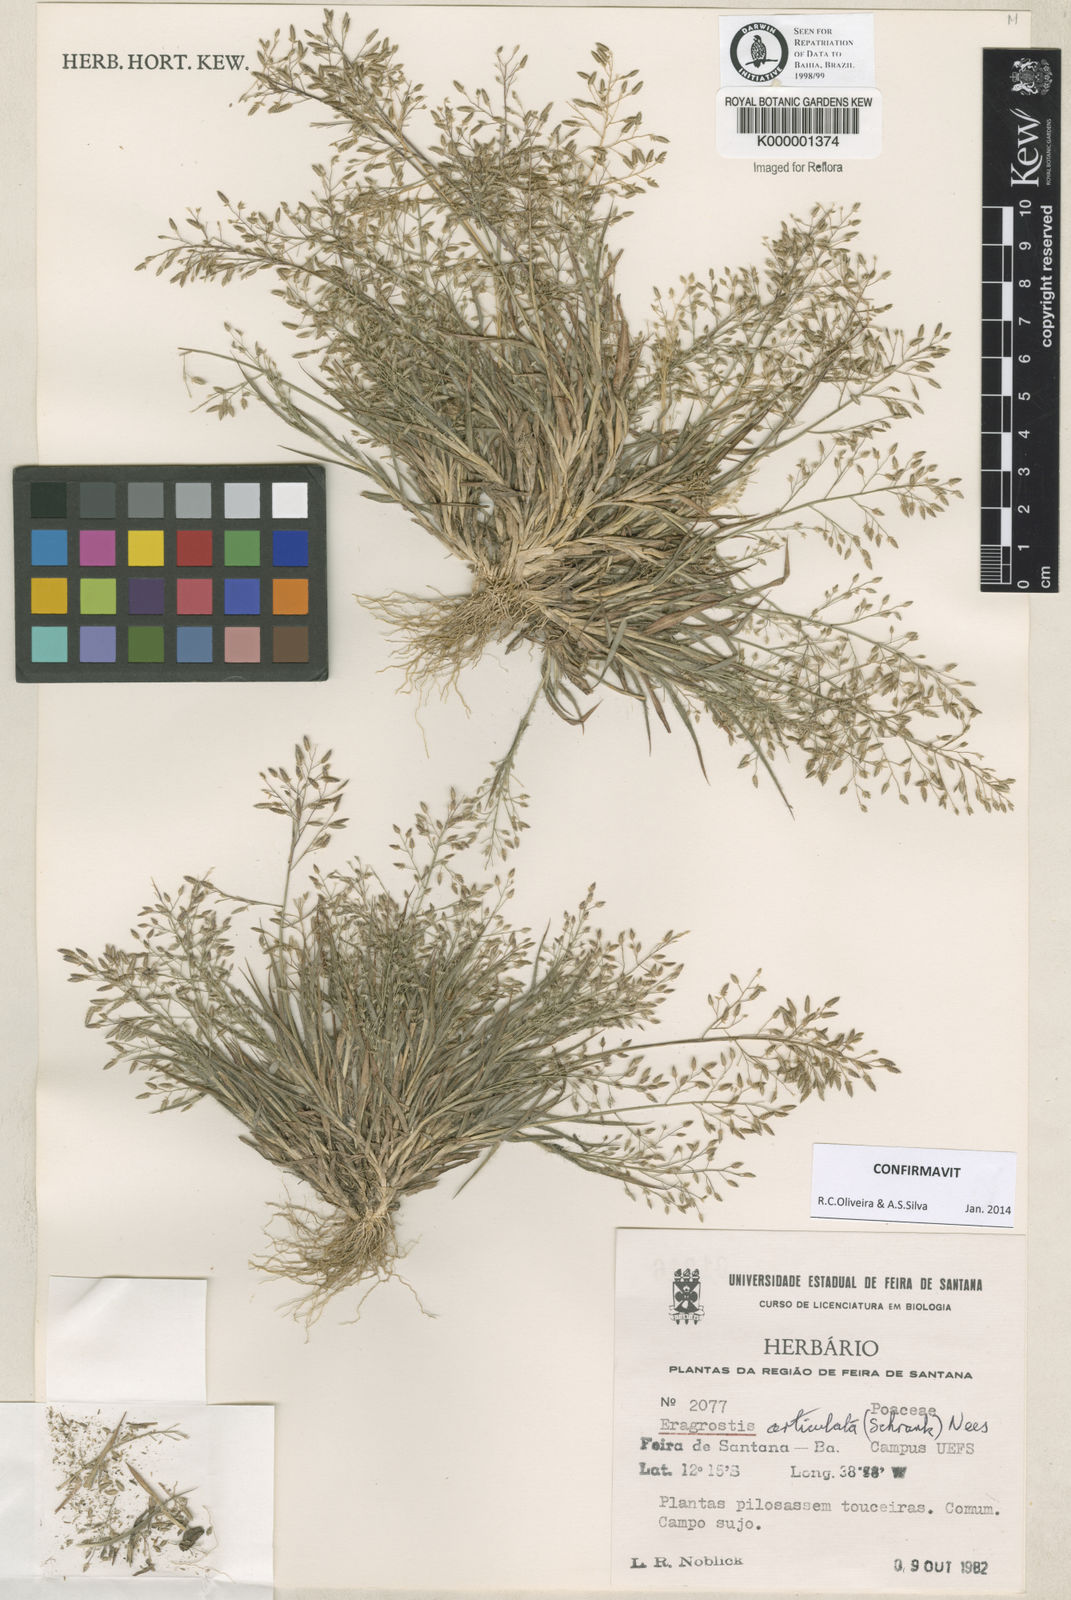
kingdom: Plantae
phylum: Tracheophyta
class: Liliopsida
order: Poales
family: Poaceae
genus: Eragrostis
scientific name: Eragrostis articulata
